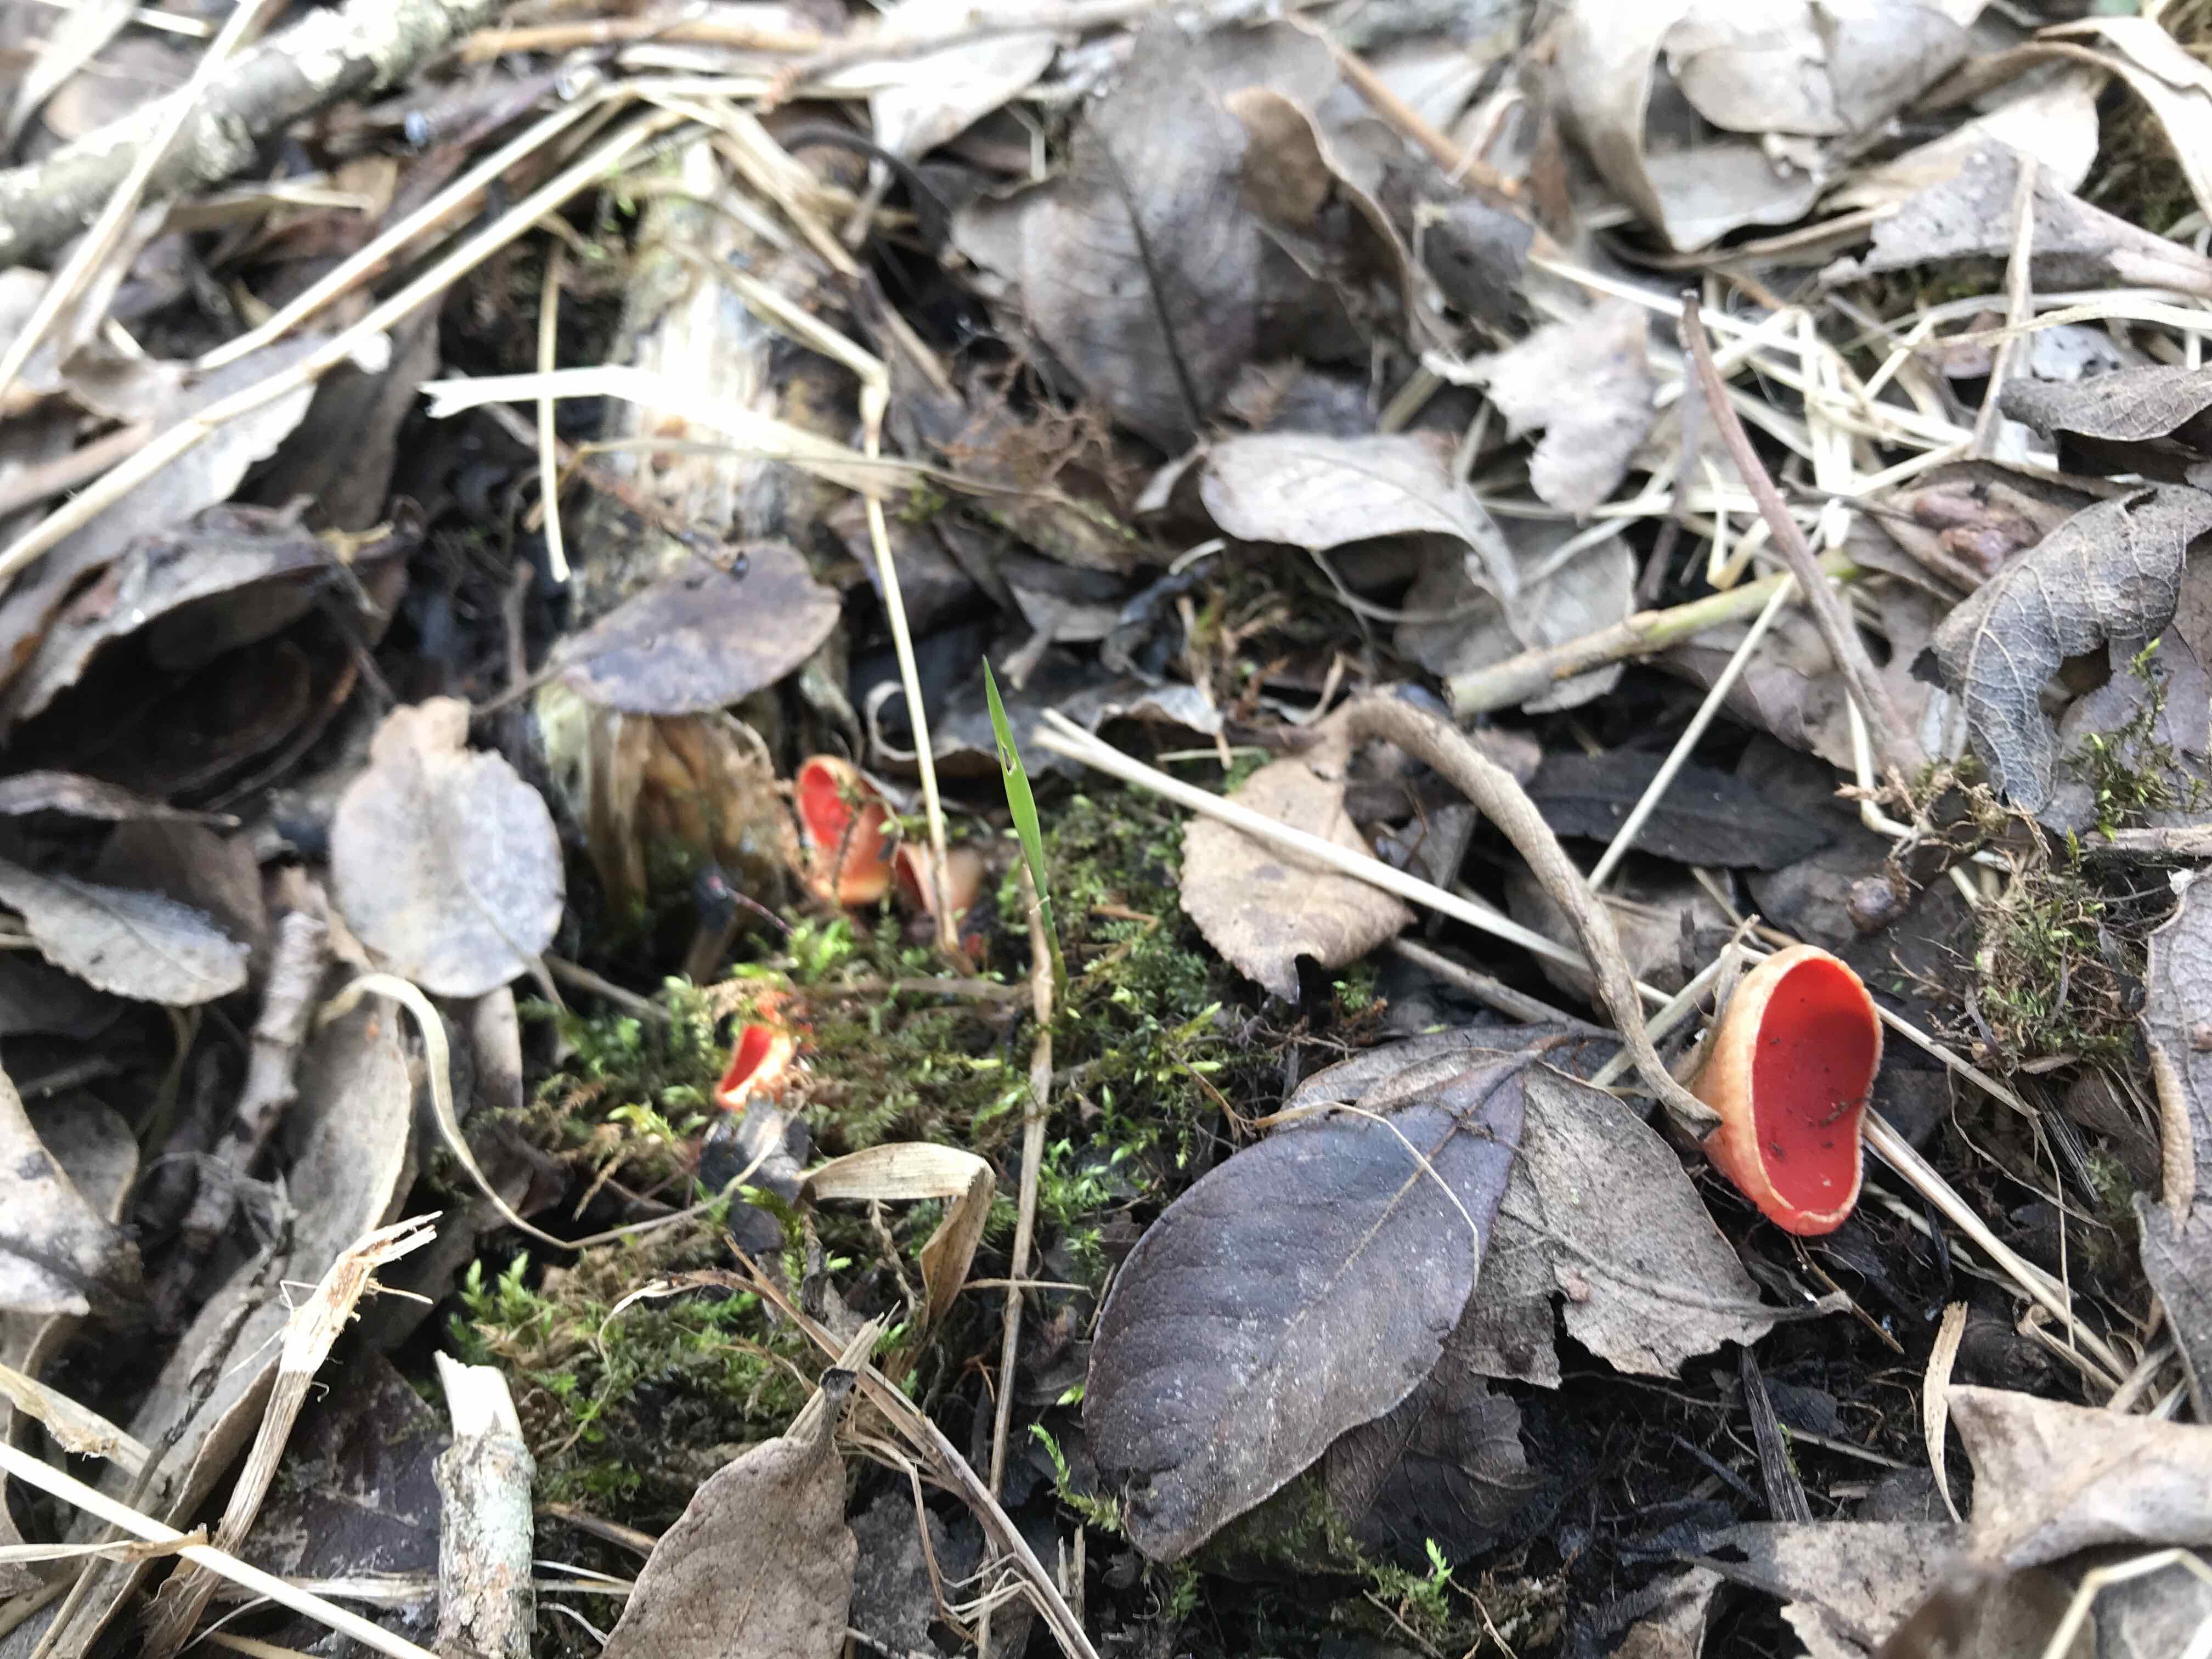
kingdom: Fungi
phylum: Ascomycota
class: Pezizomycetes
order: Pezizales
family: Sarcoscyphaceae
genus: Sarcoscypha
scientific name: Sarcoscypha austriaca
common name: krølhåret pragtbæger
